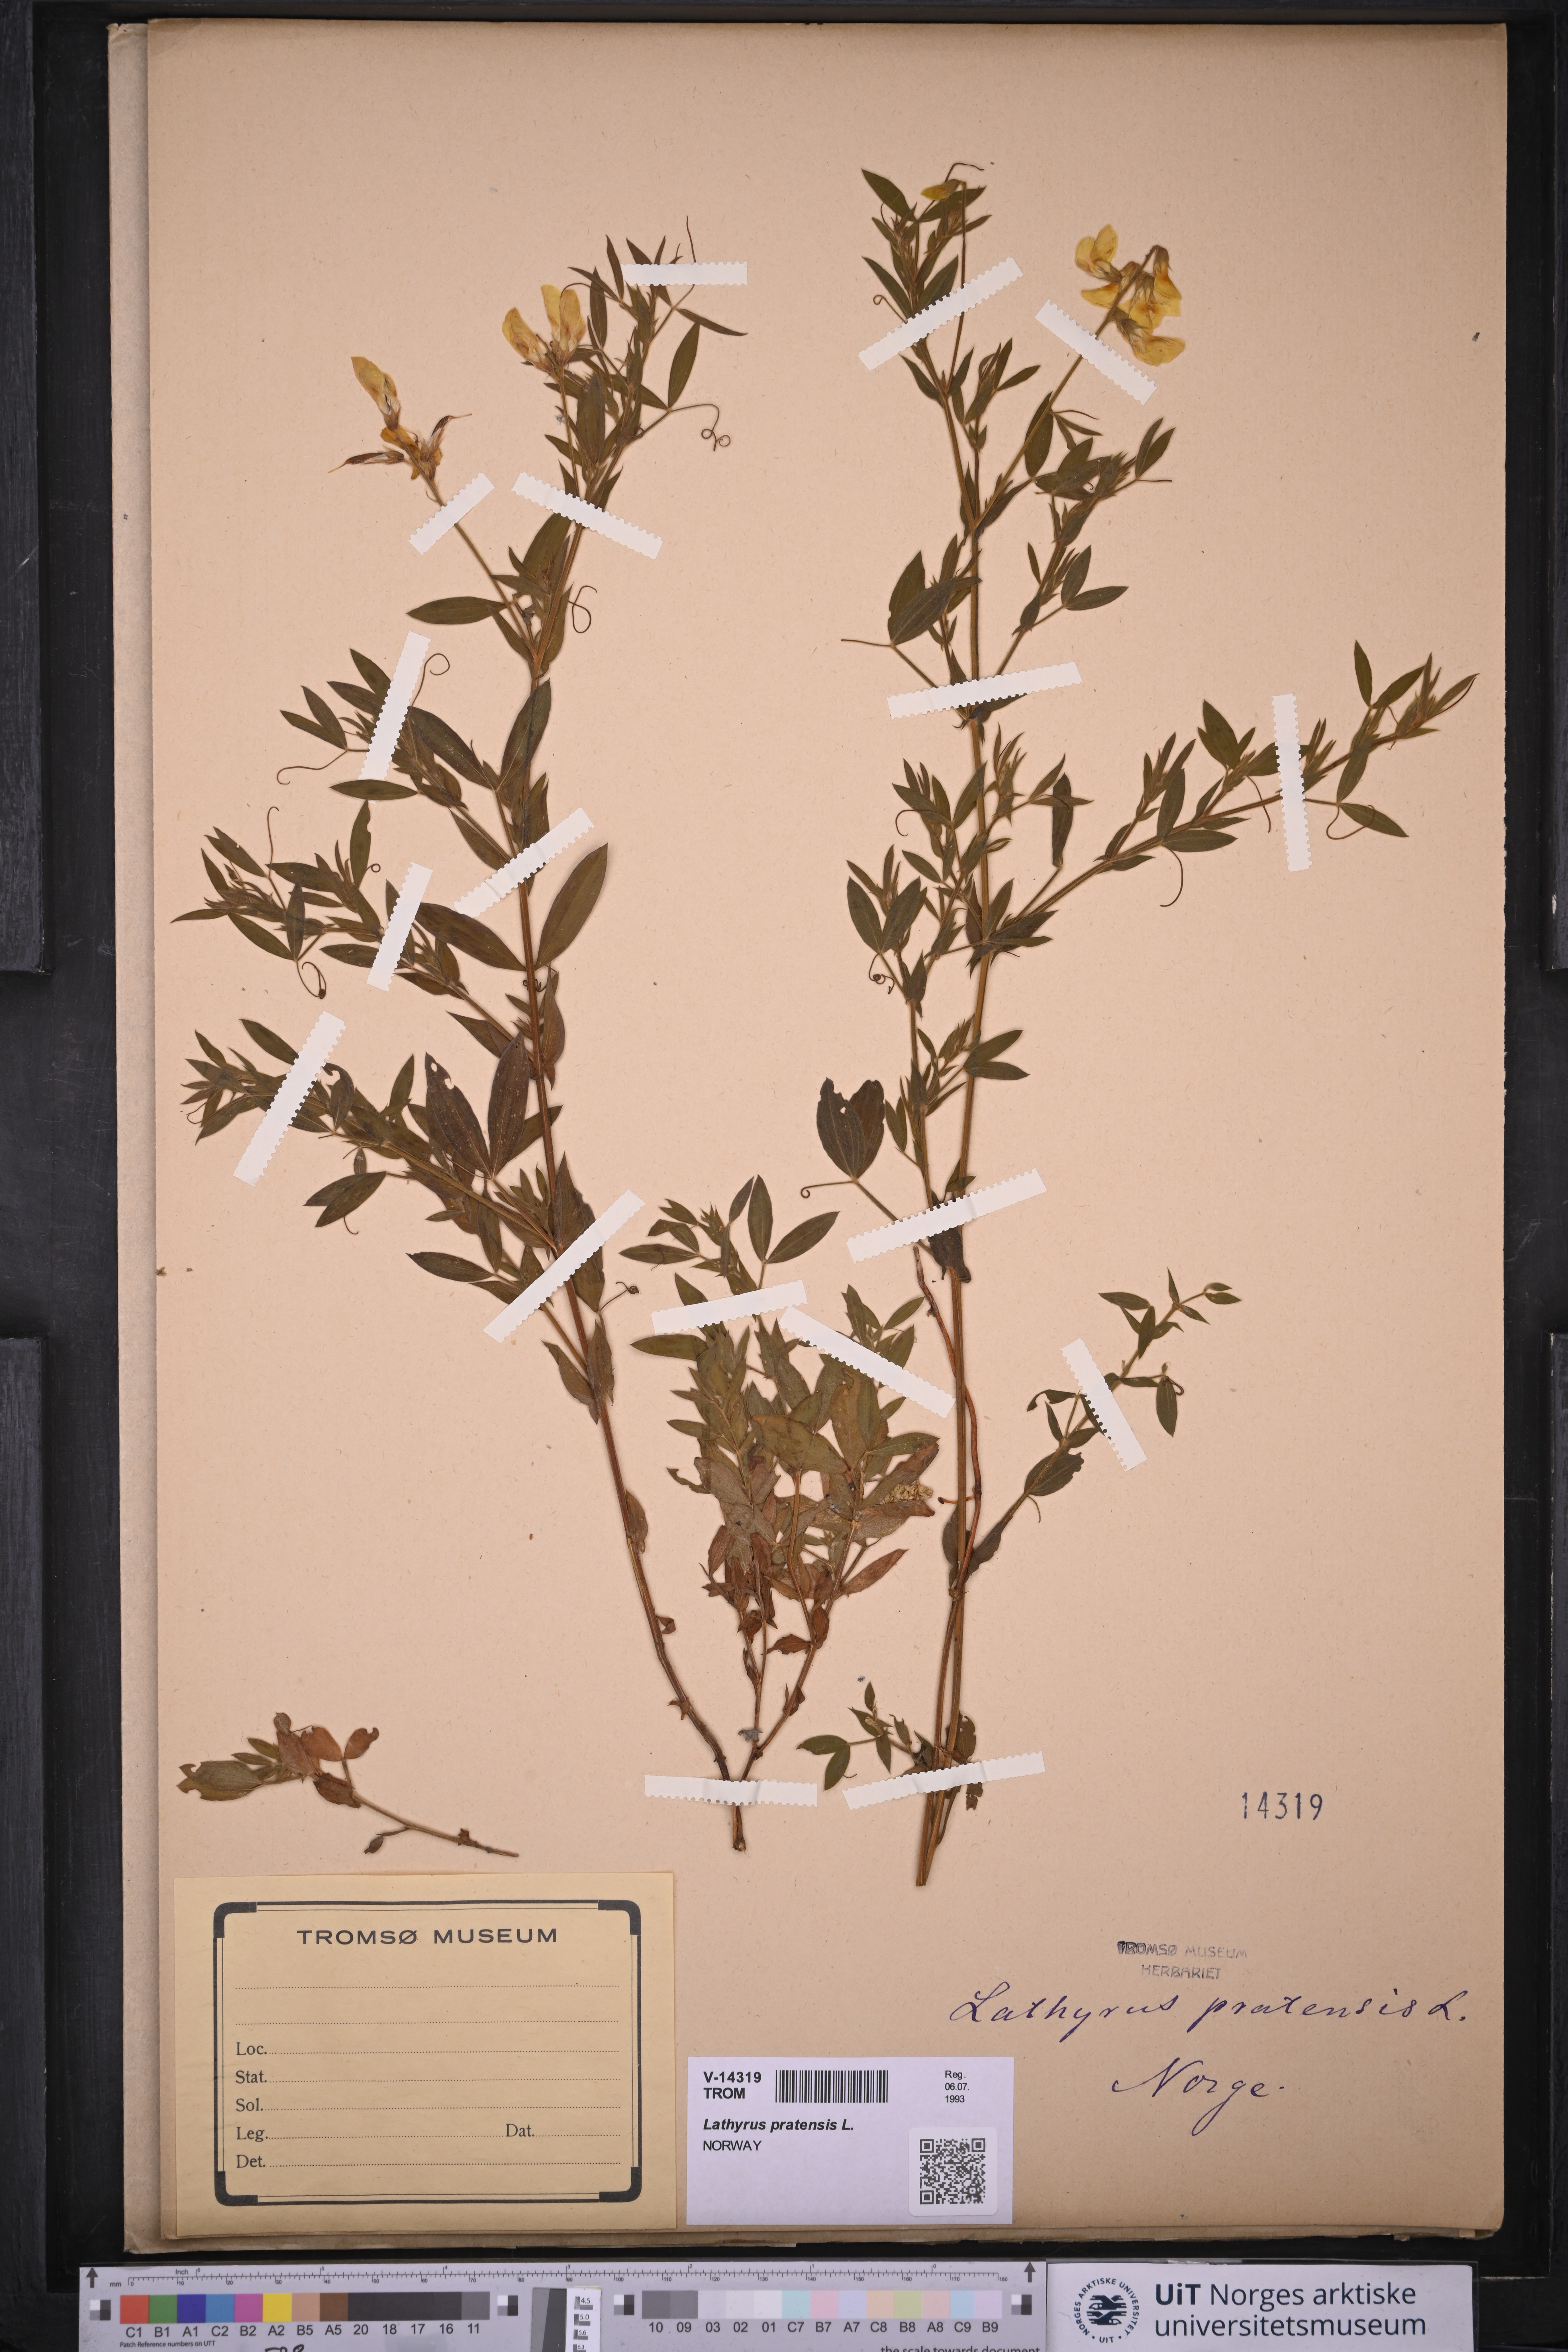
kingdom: Plantae
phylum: Tracheophyta
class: Magnoliopsida
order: Fabales
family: Fabaceae
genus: Lathyrus
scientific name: Lathyrus pratensis
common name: Meadow vetchling
